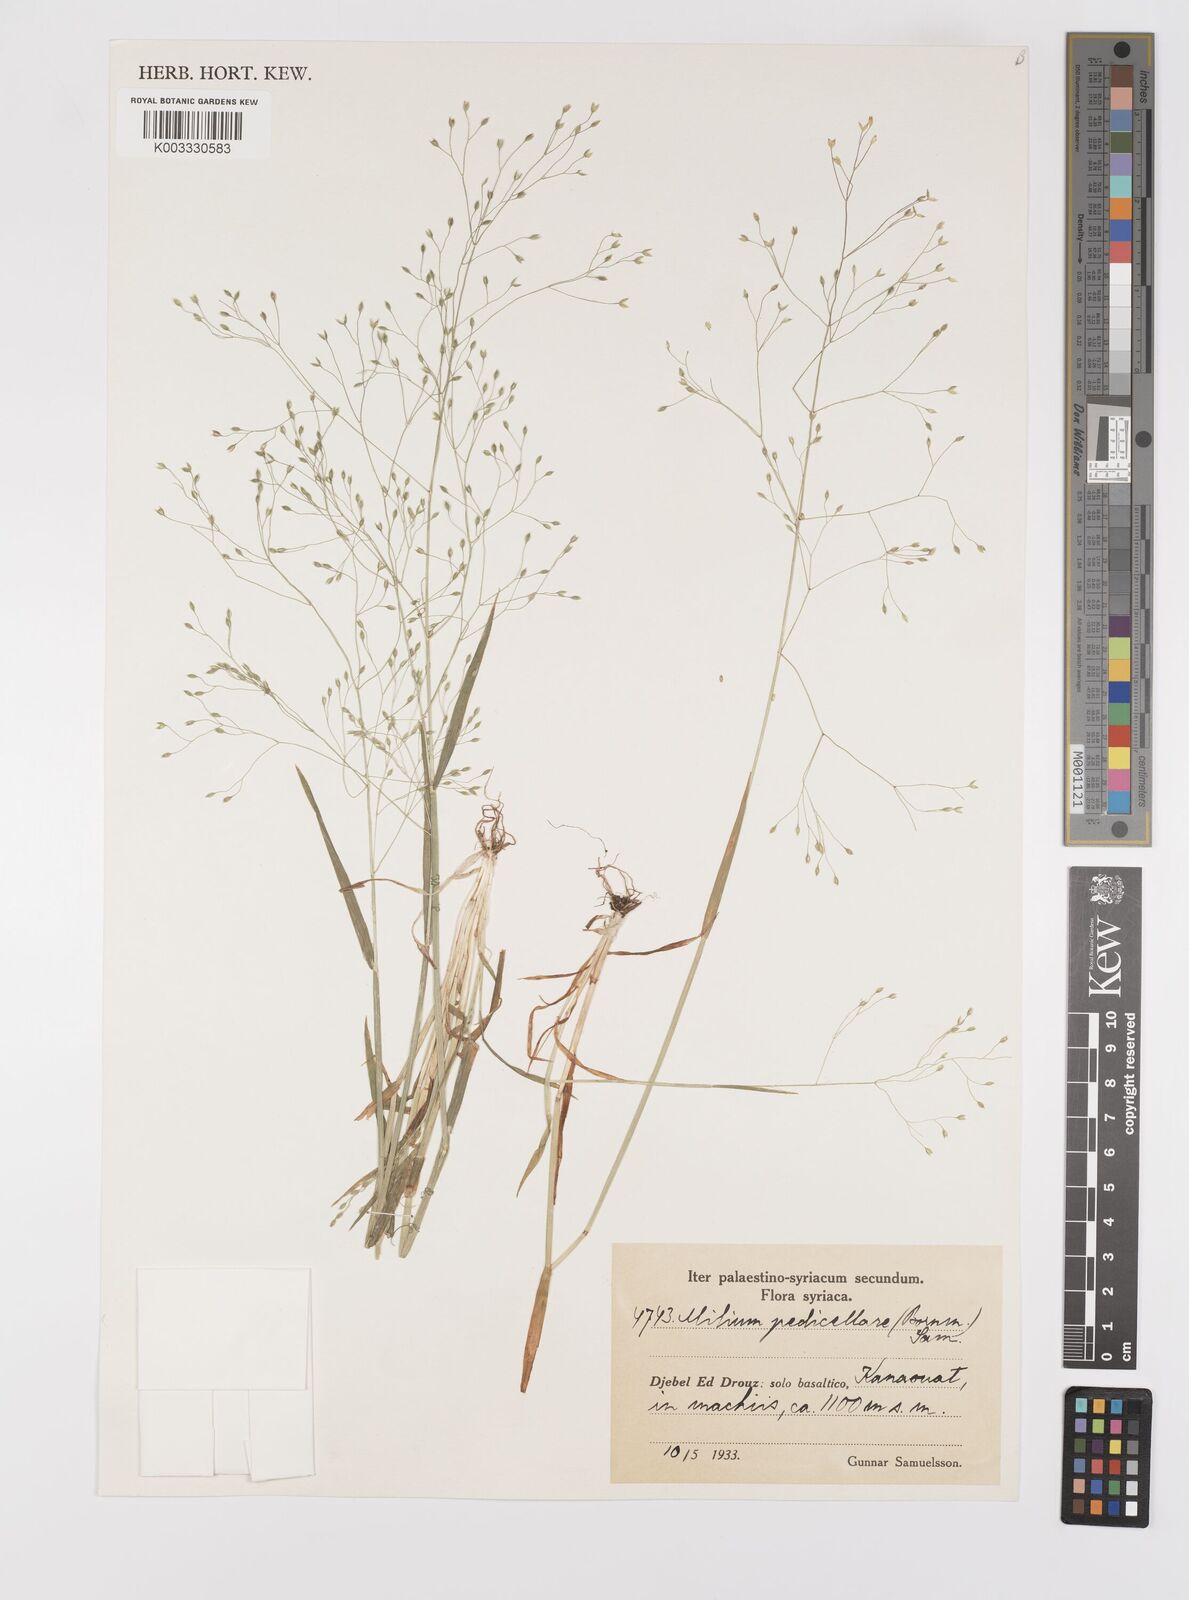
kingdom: Plantae
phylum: Tracheophyta
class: Liliopsida
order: Poales
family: Poaceae
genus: Milium
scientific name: Milium pedicellare
